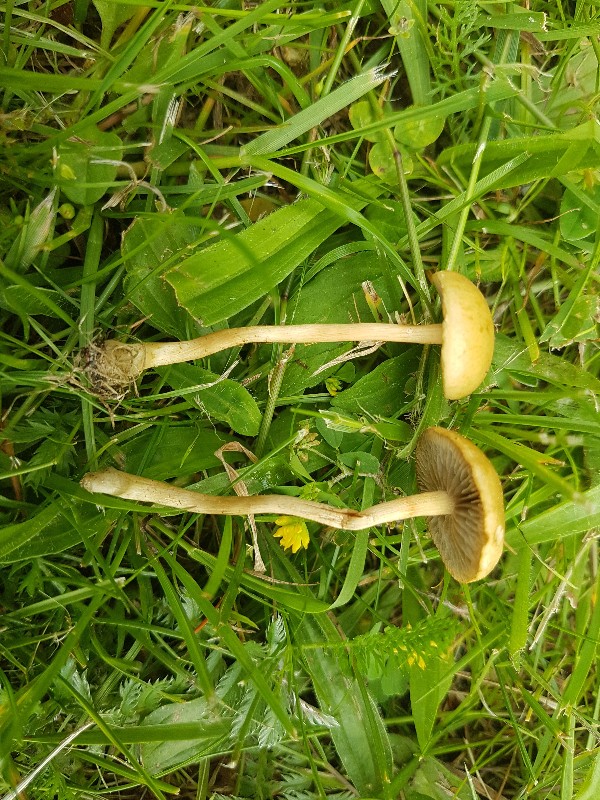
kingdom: Fungi
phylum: Basidiomycota
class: Agaricomycetes
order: Agaricales
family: Strophariaceae
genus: Agrocybe
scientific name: Agrocybe pediades
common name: almindelig agerhat
